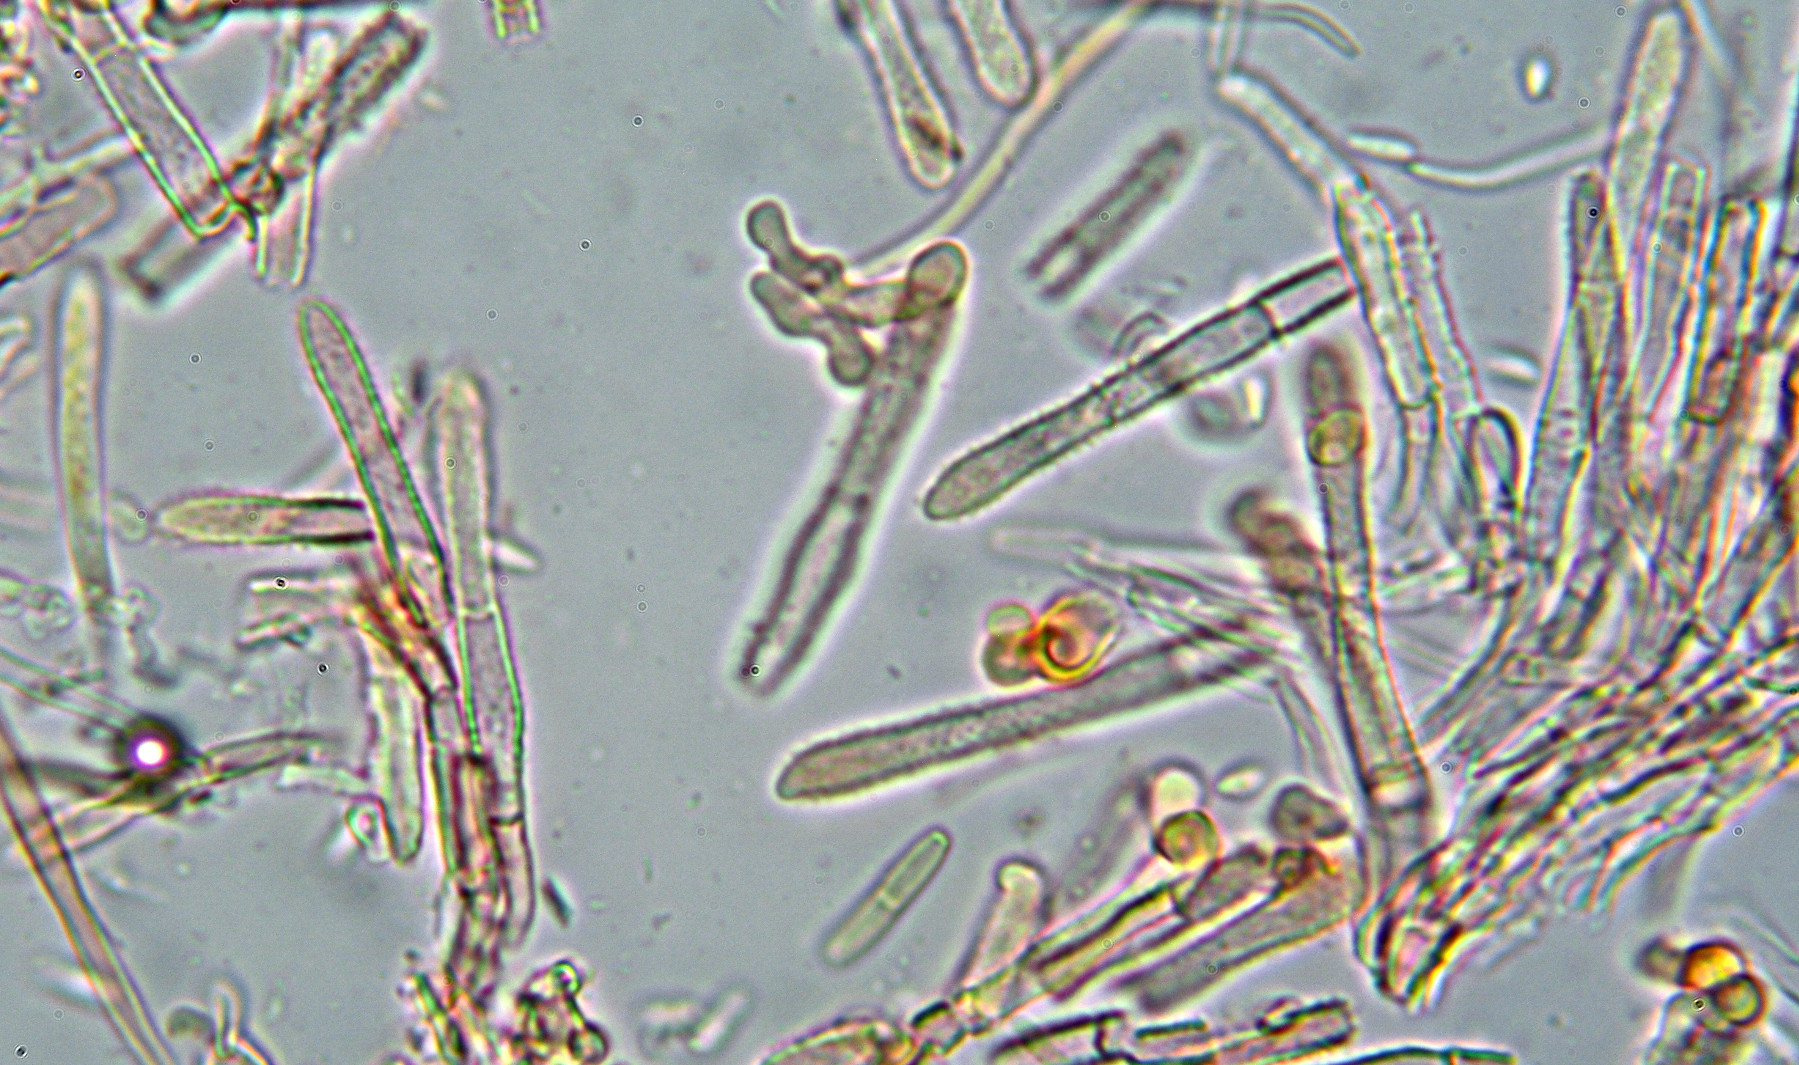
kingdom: Fungi
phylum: Ascomycota
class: Leotiomycetes
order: Helotiales
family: Lachnaceae
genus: Lachnum
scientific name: Lachnum impudicum
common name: vinter-frynseskive
